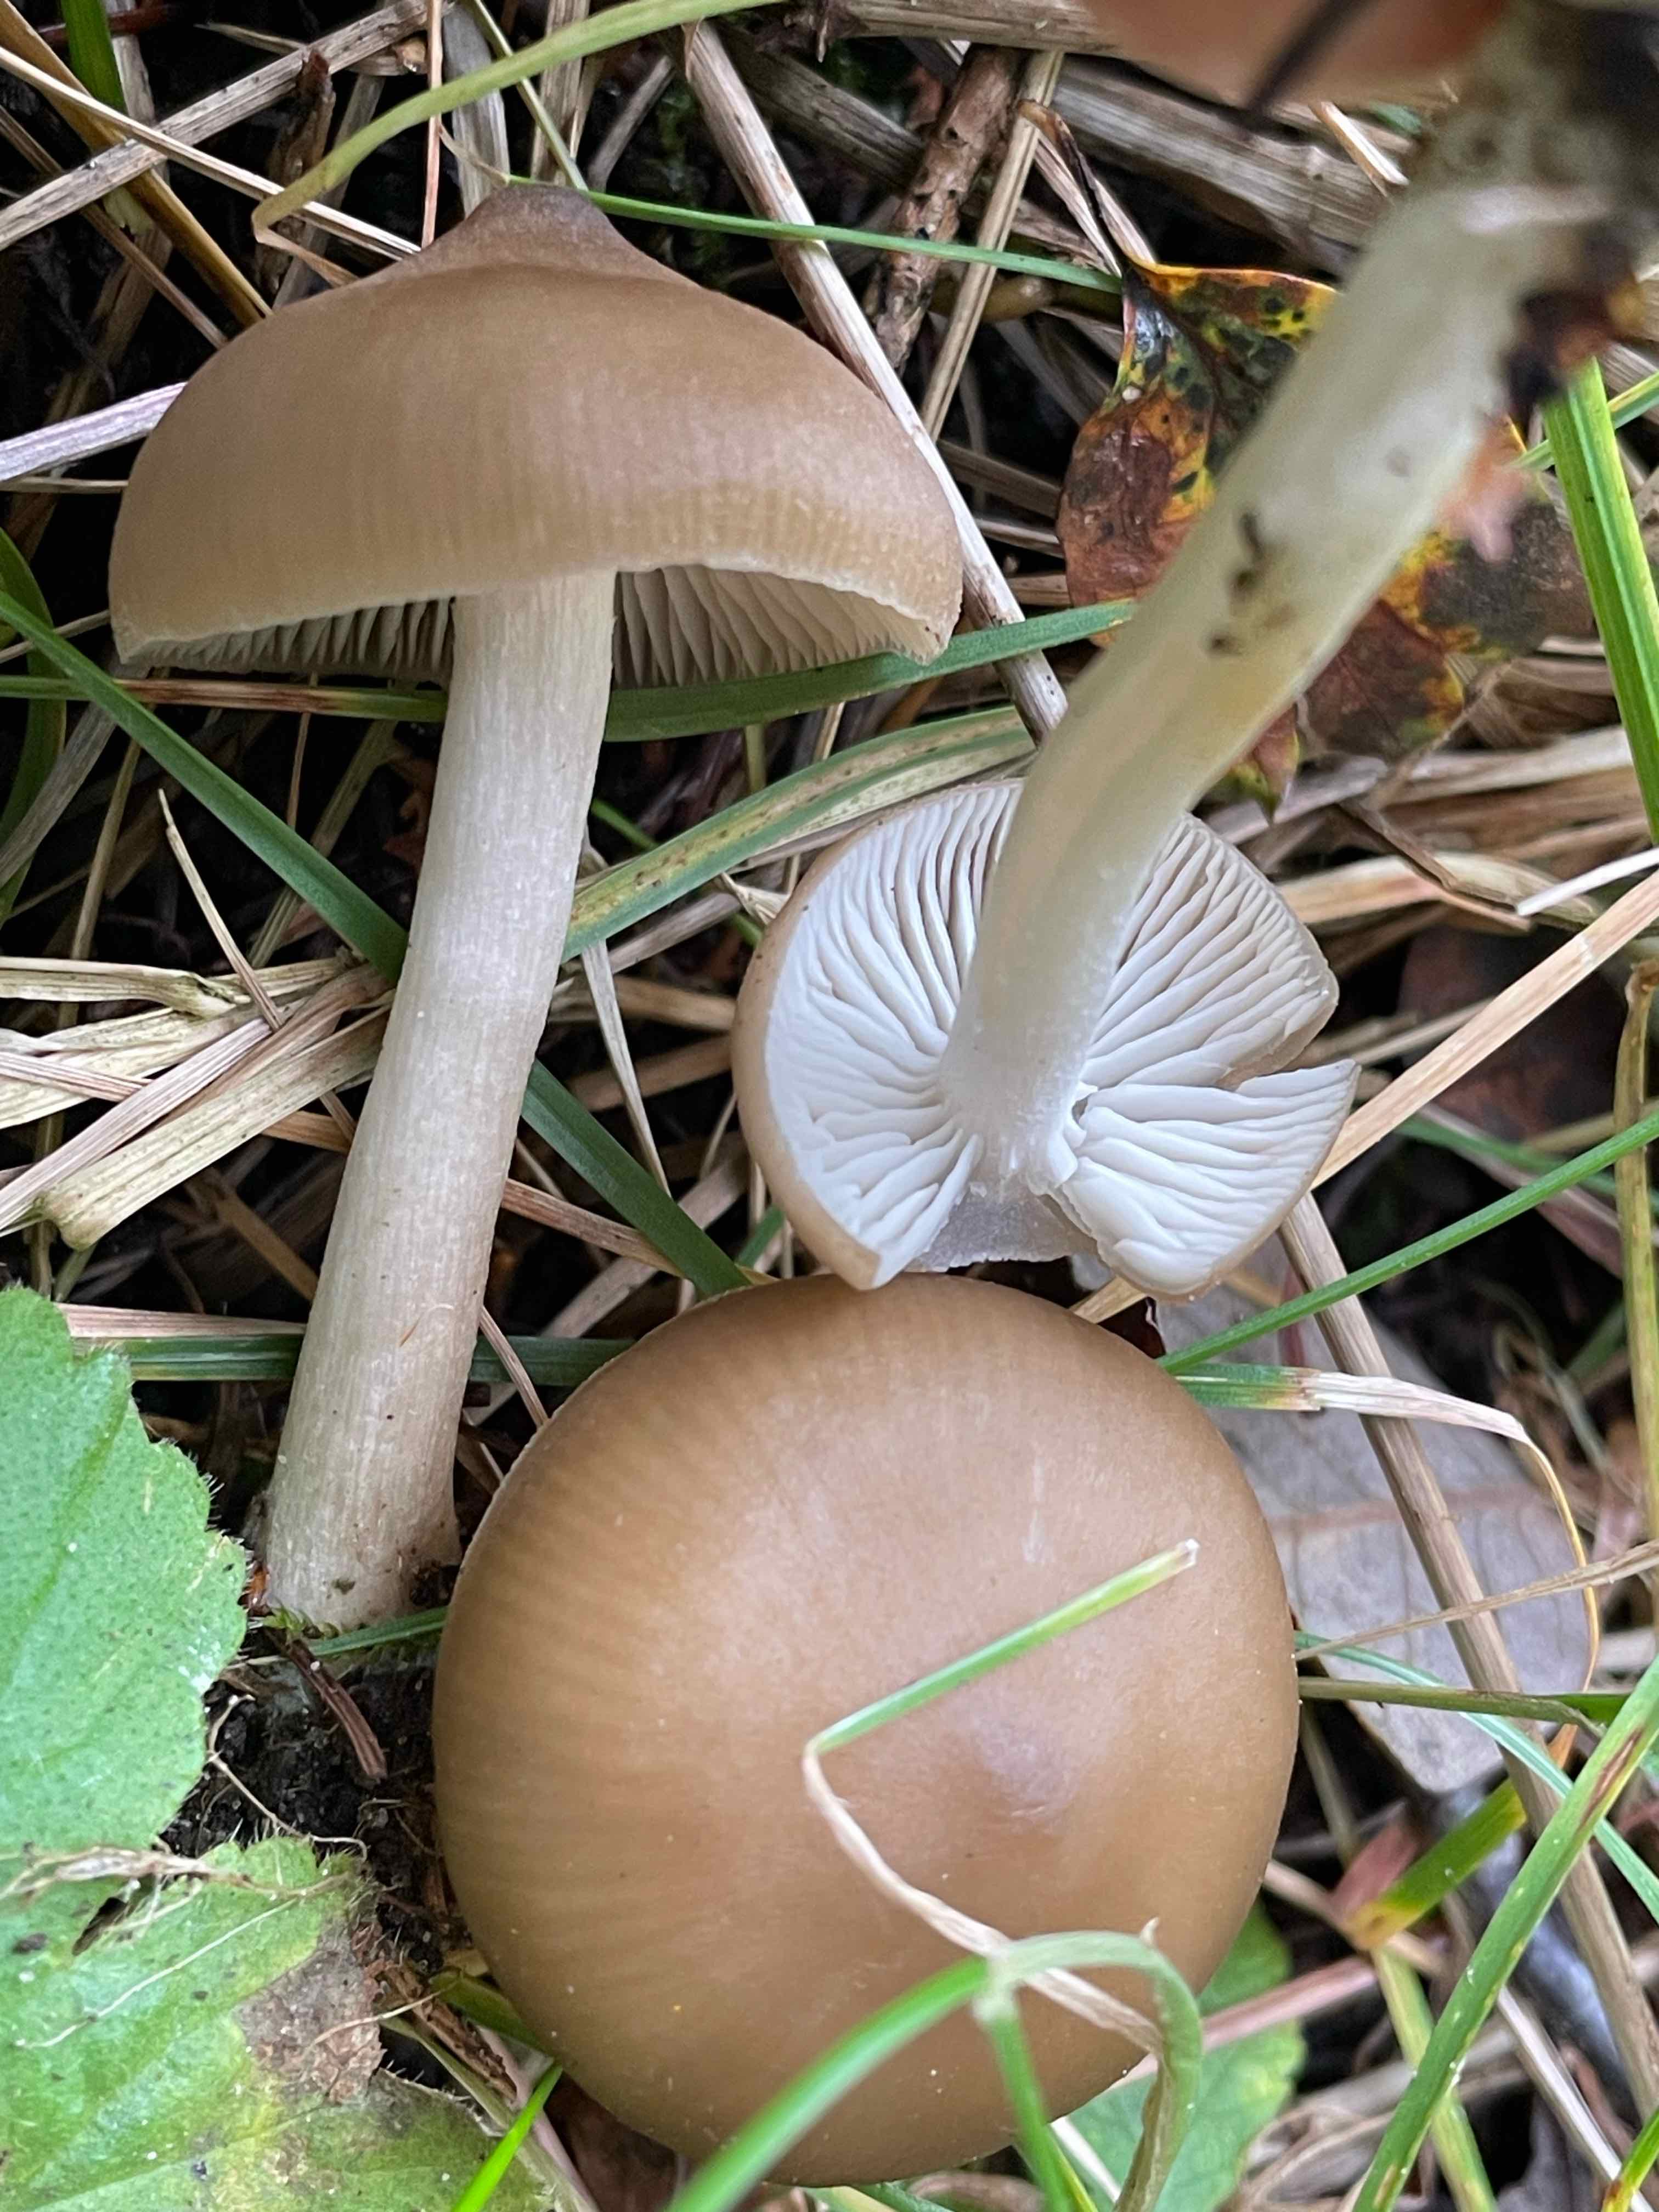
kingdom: Fungi
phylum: Basidiomycota
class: Agaricomycetes
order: Agaricales
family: Entolomataceae
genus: Entoloma
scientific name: Entoloma
